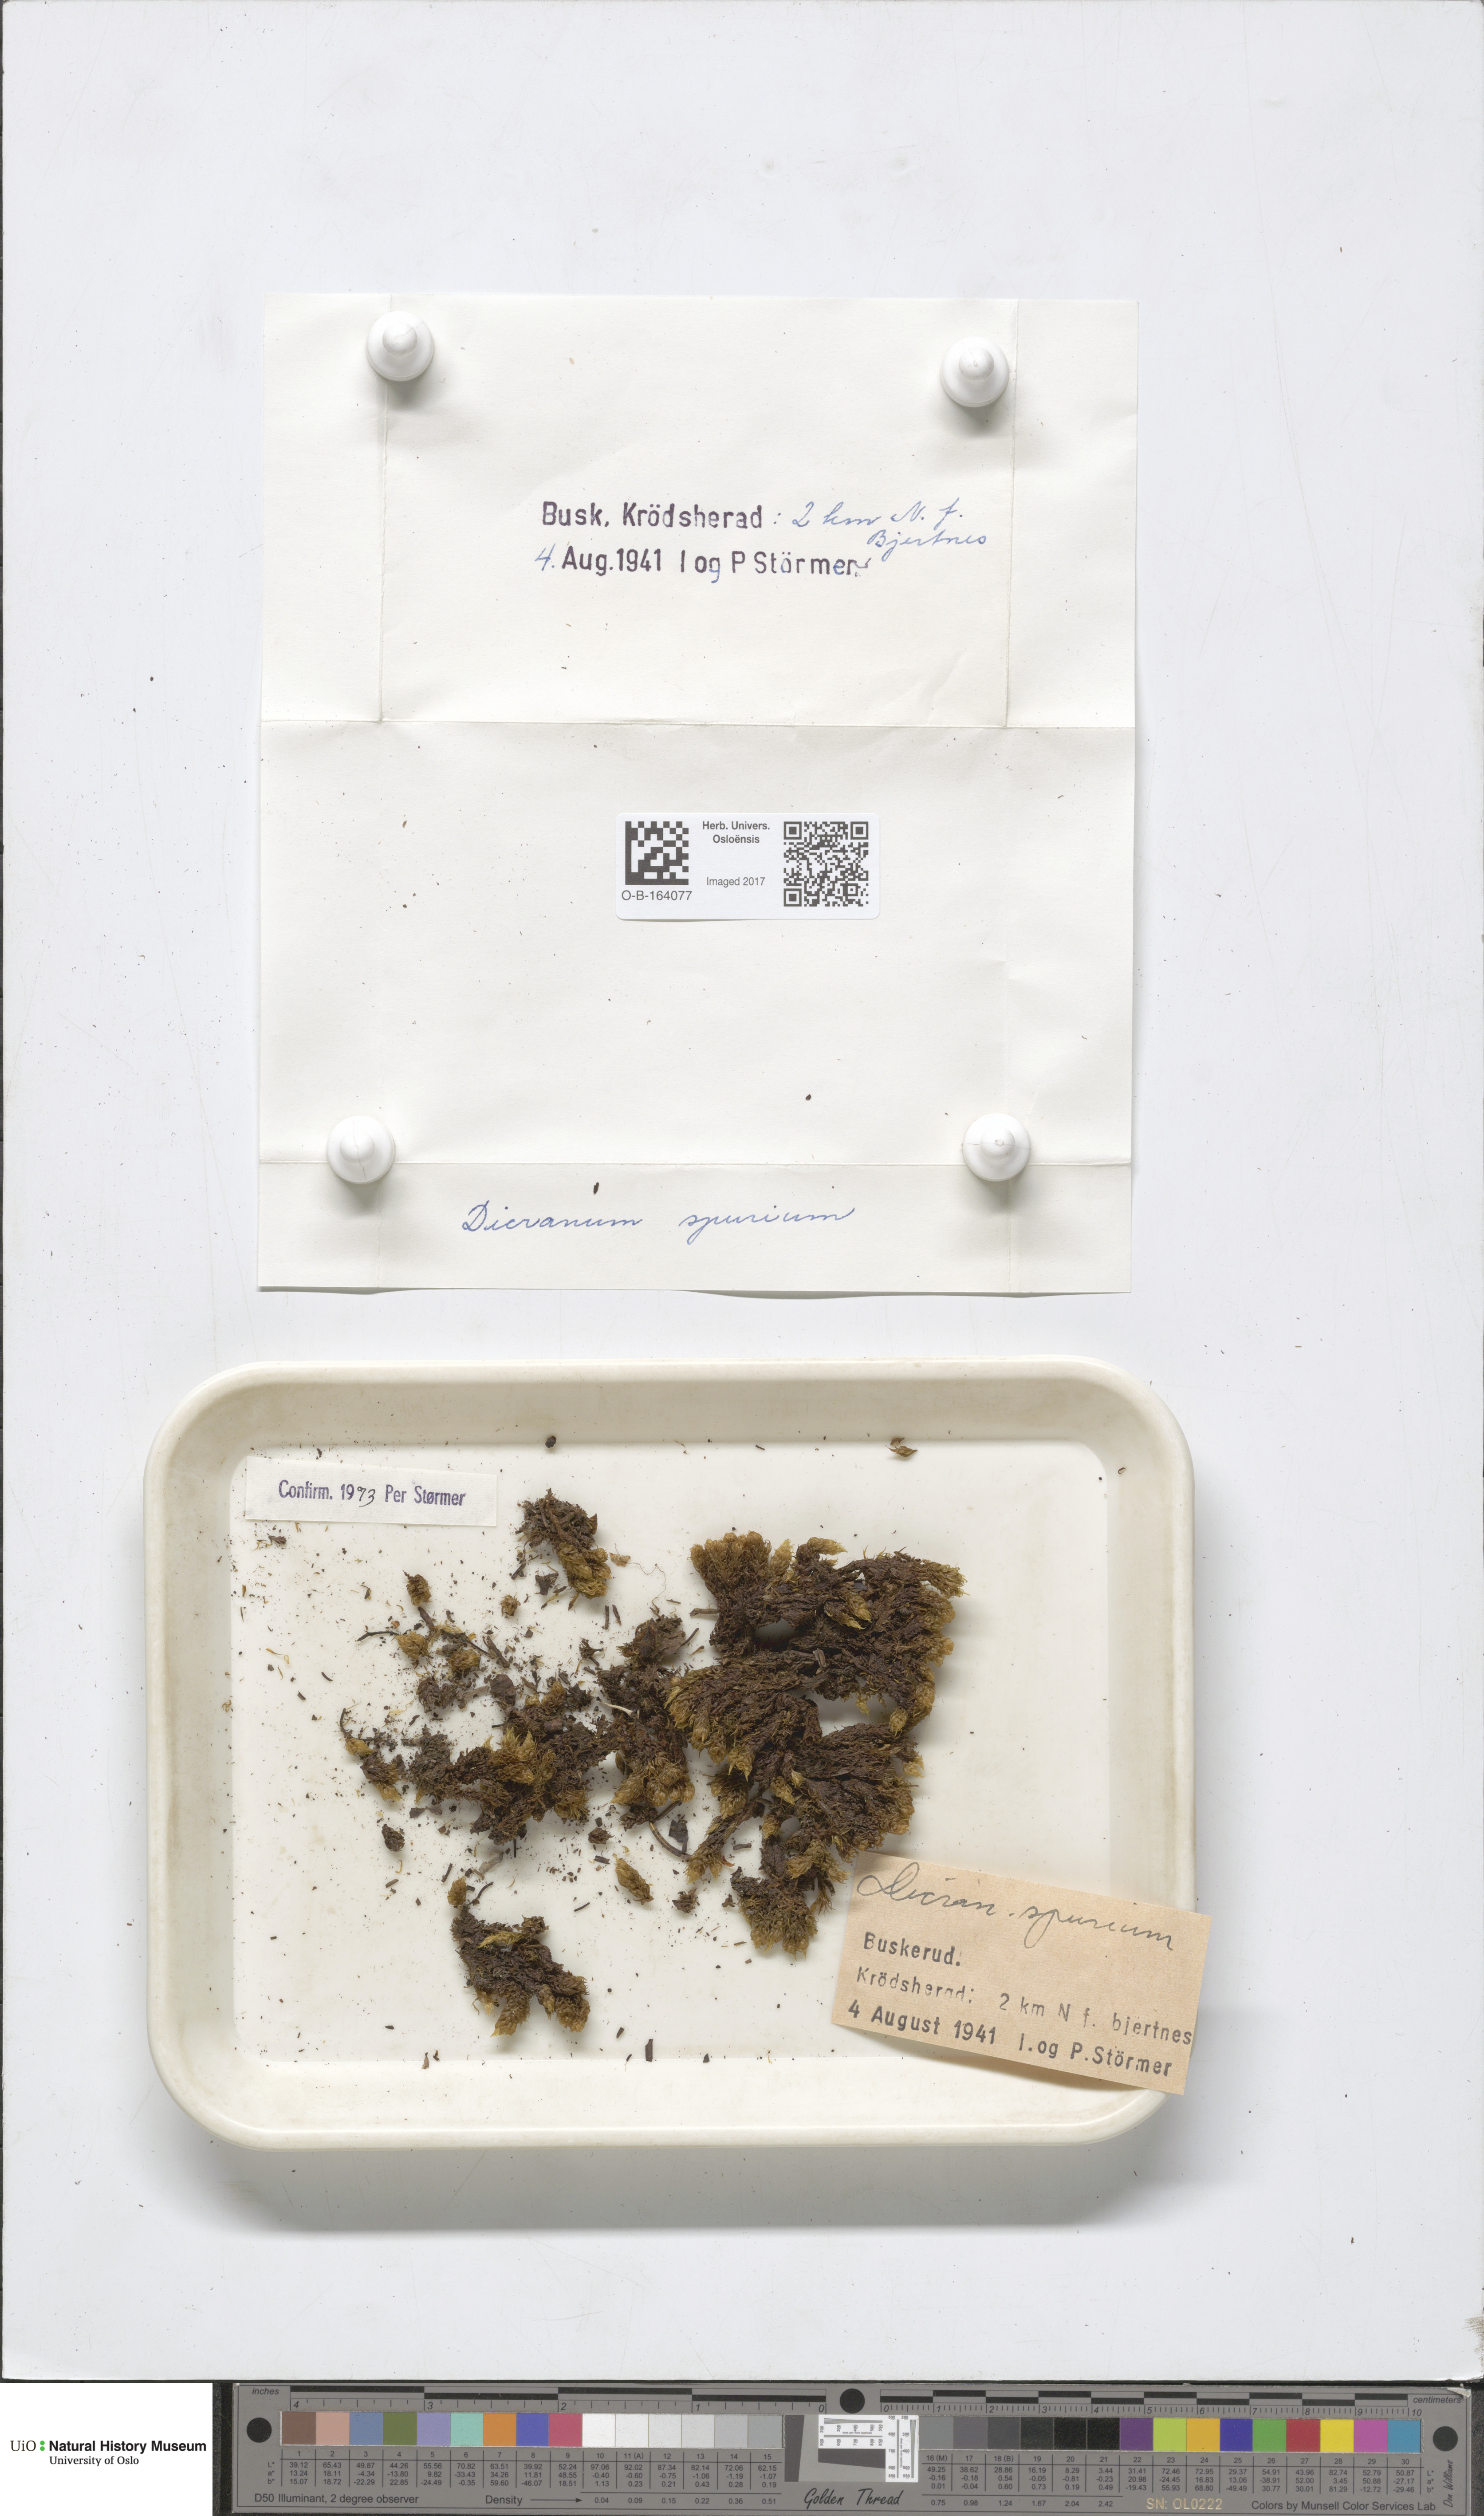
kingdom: Plantae
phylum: Bryophyta
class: Bryopsida
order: Dicranales
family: Dicranaceae
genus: Dicranum
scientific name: Dicranum spurium
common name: Spurred broom moss
